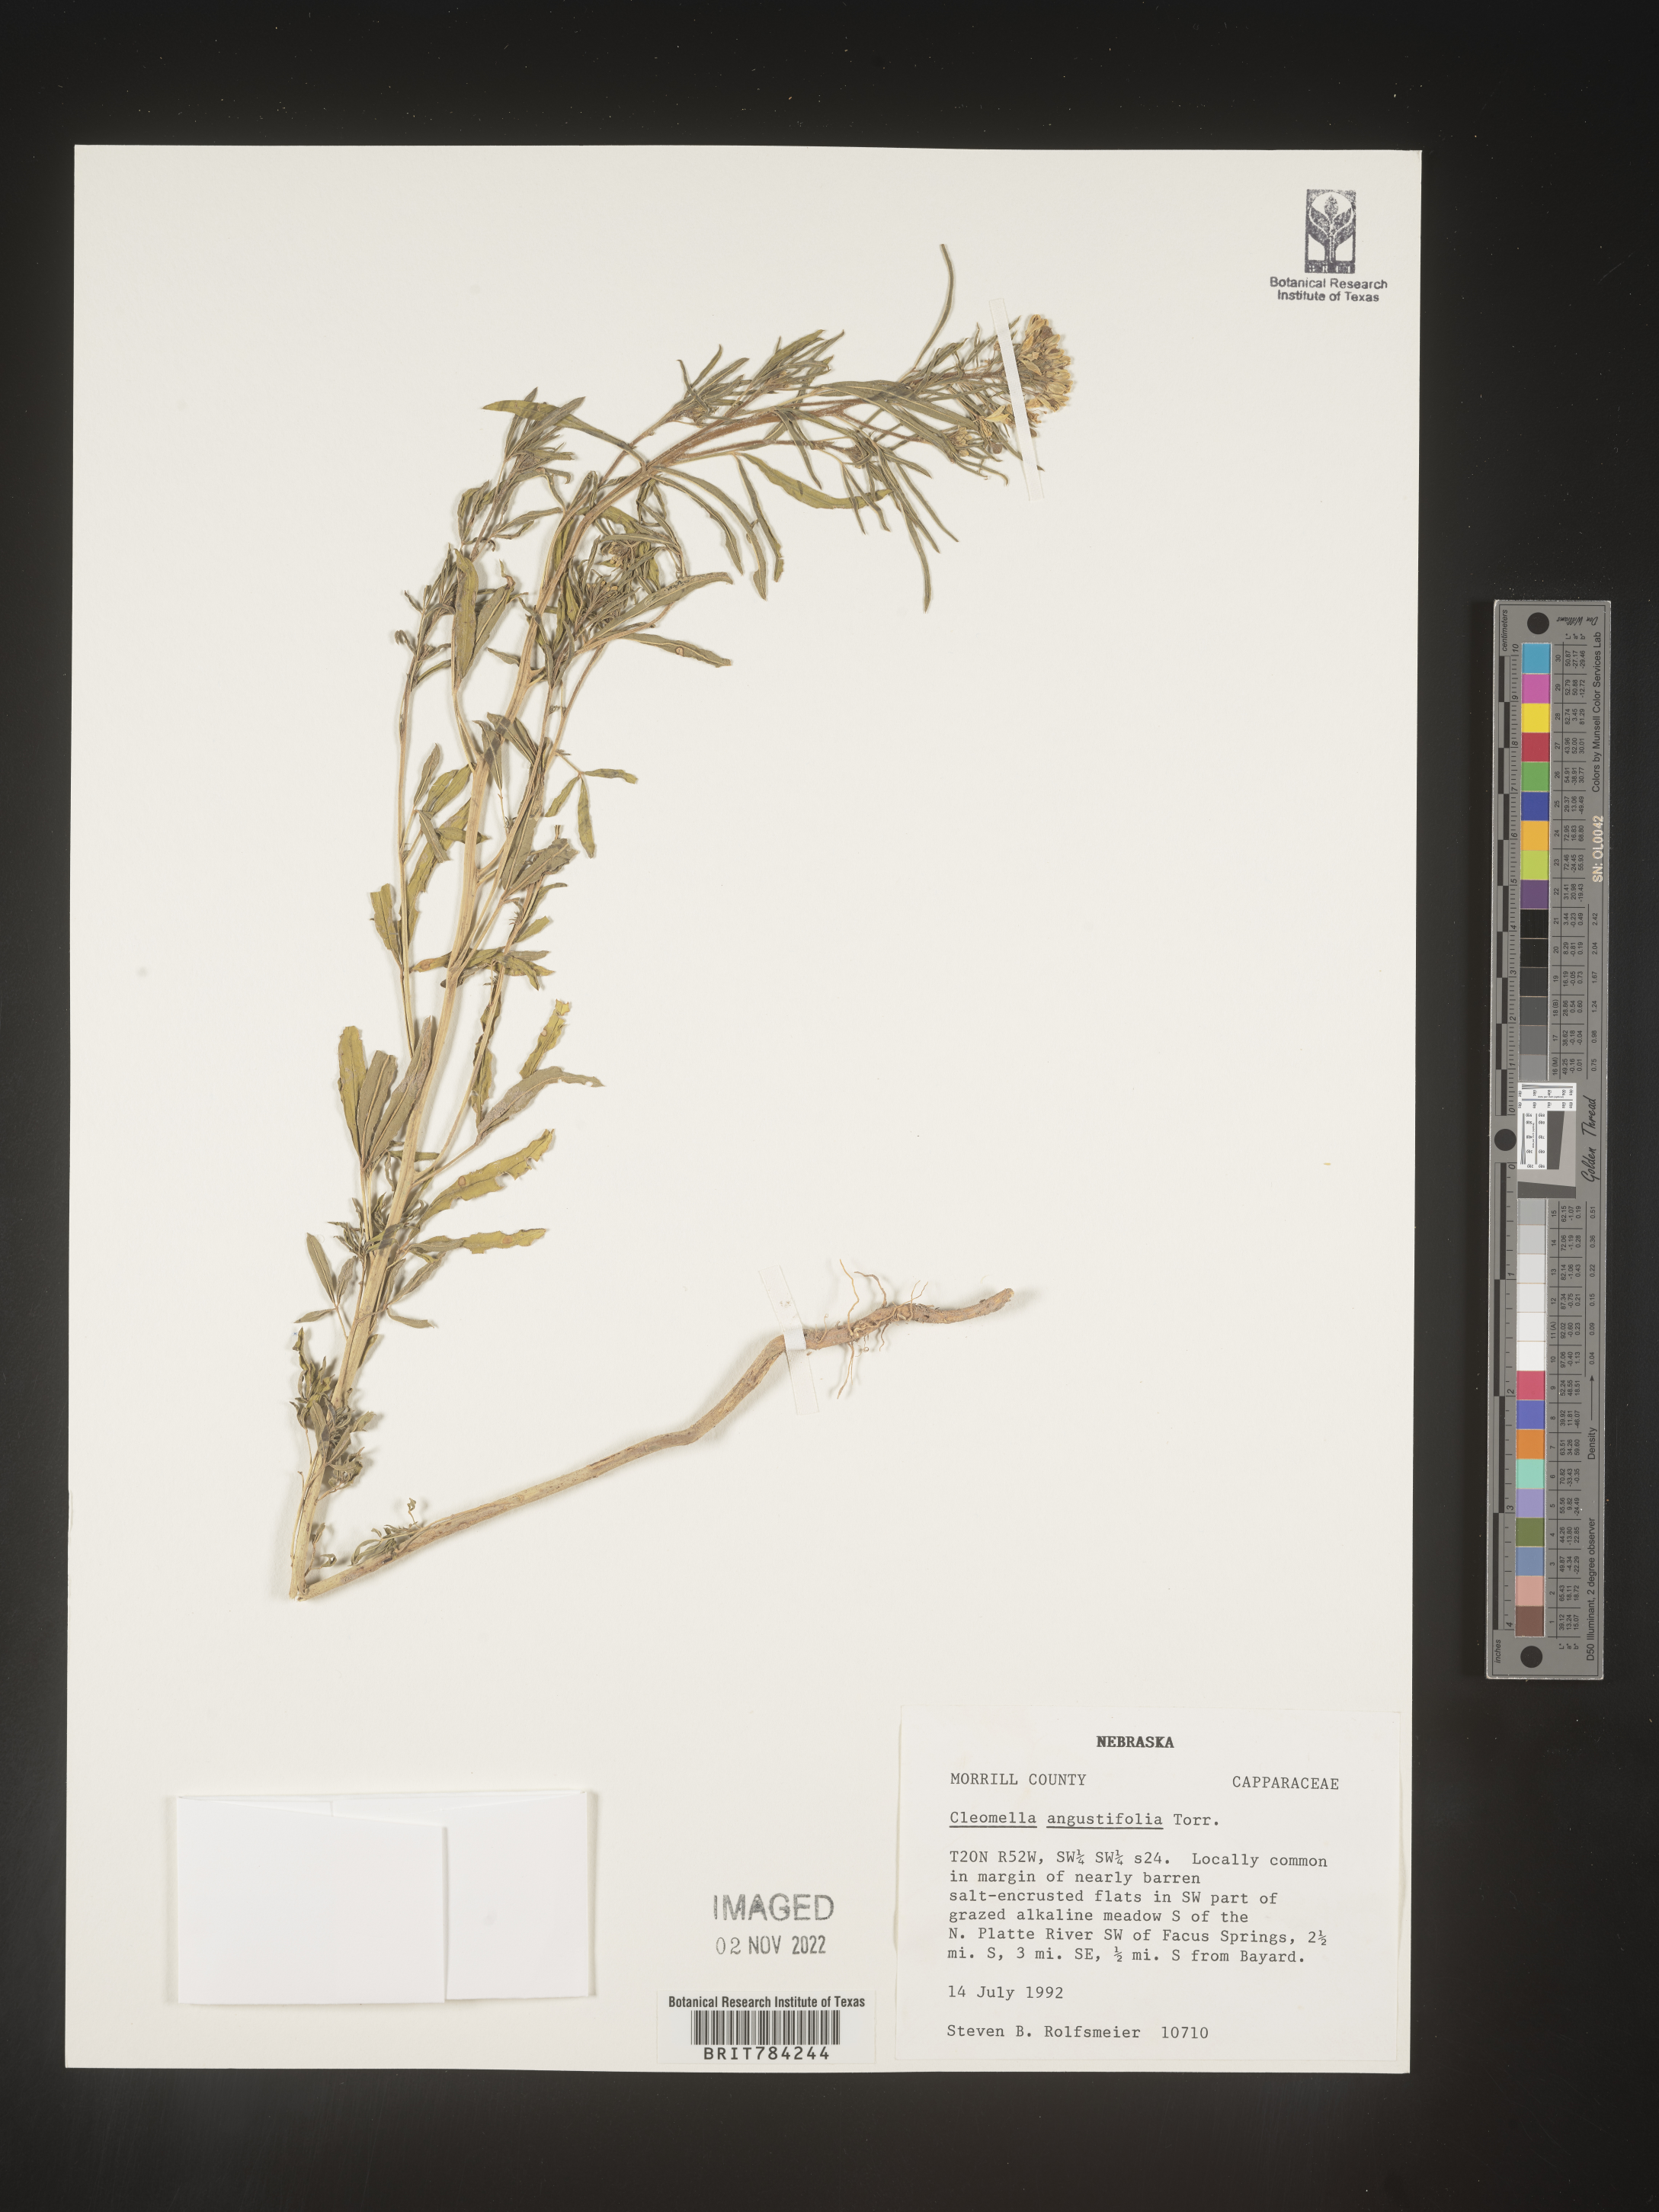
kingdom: Plantae
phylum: Tracheophyta
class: Magnoliopsida
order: Brassicales
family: Cleomaceae
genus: Cleomella
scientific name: Cleomella
